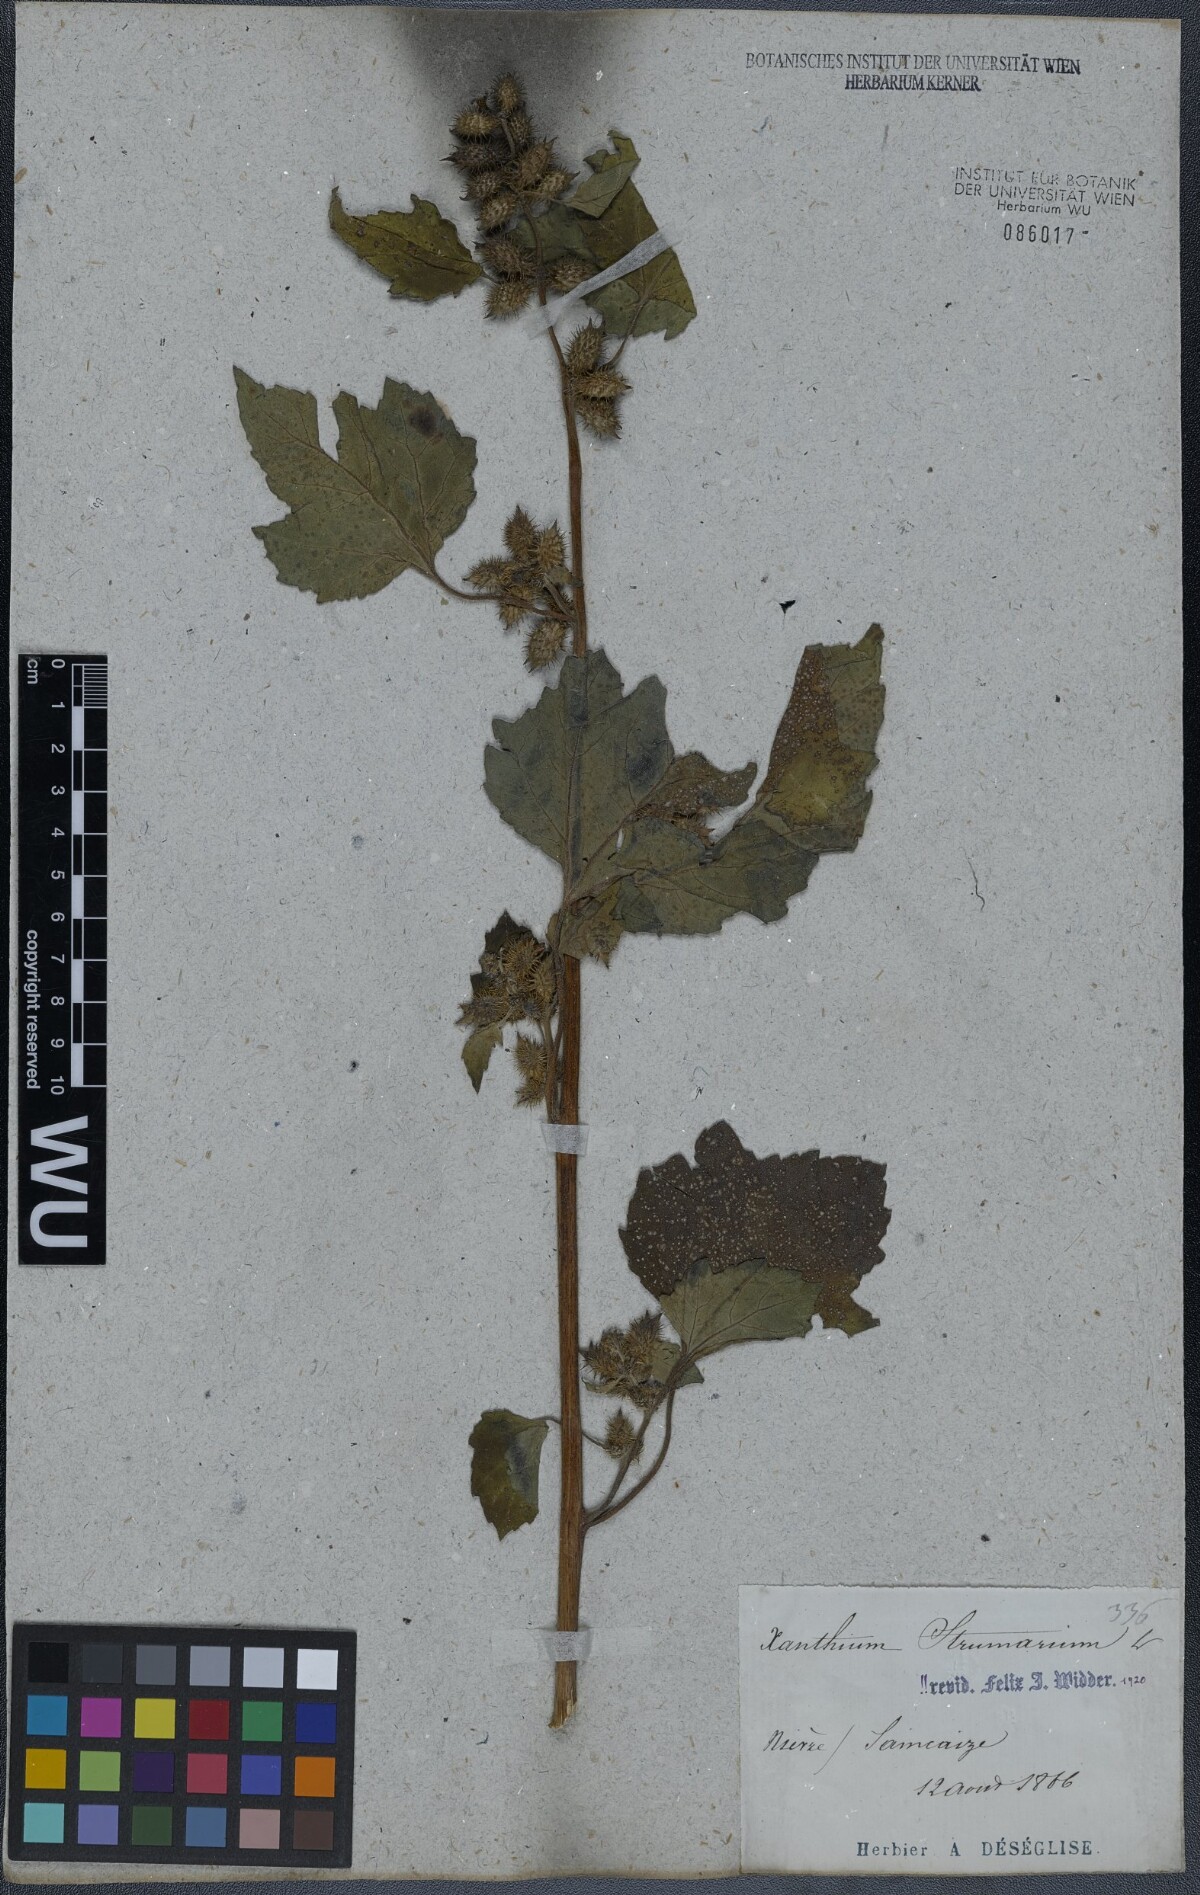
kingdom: Plantae
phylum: Tracheophyta
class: Magnoliopsida
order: Asterales
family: Asteraceae
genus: Xanthium
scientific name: Xanthium strumarium
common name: Rough cocklebur
